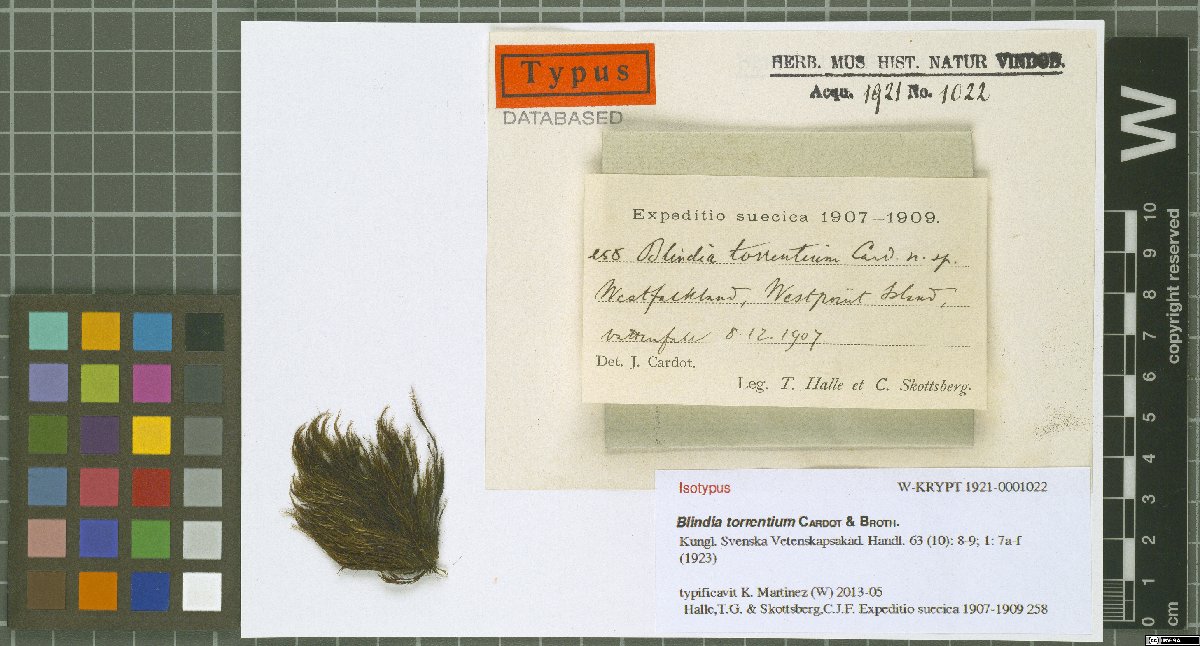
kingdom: Plantae
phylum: Bryophyta
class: Bryopsida
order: Grimmiales
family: Seligeriaceae
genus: Blindia
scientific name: Blindia torrentium
